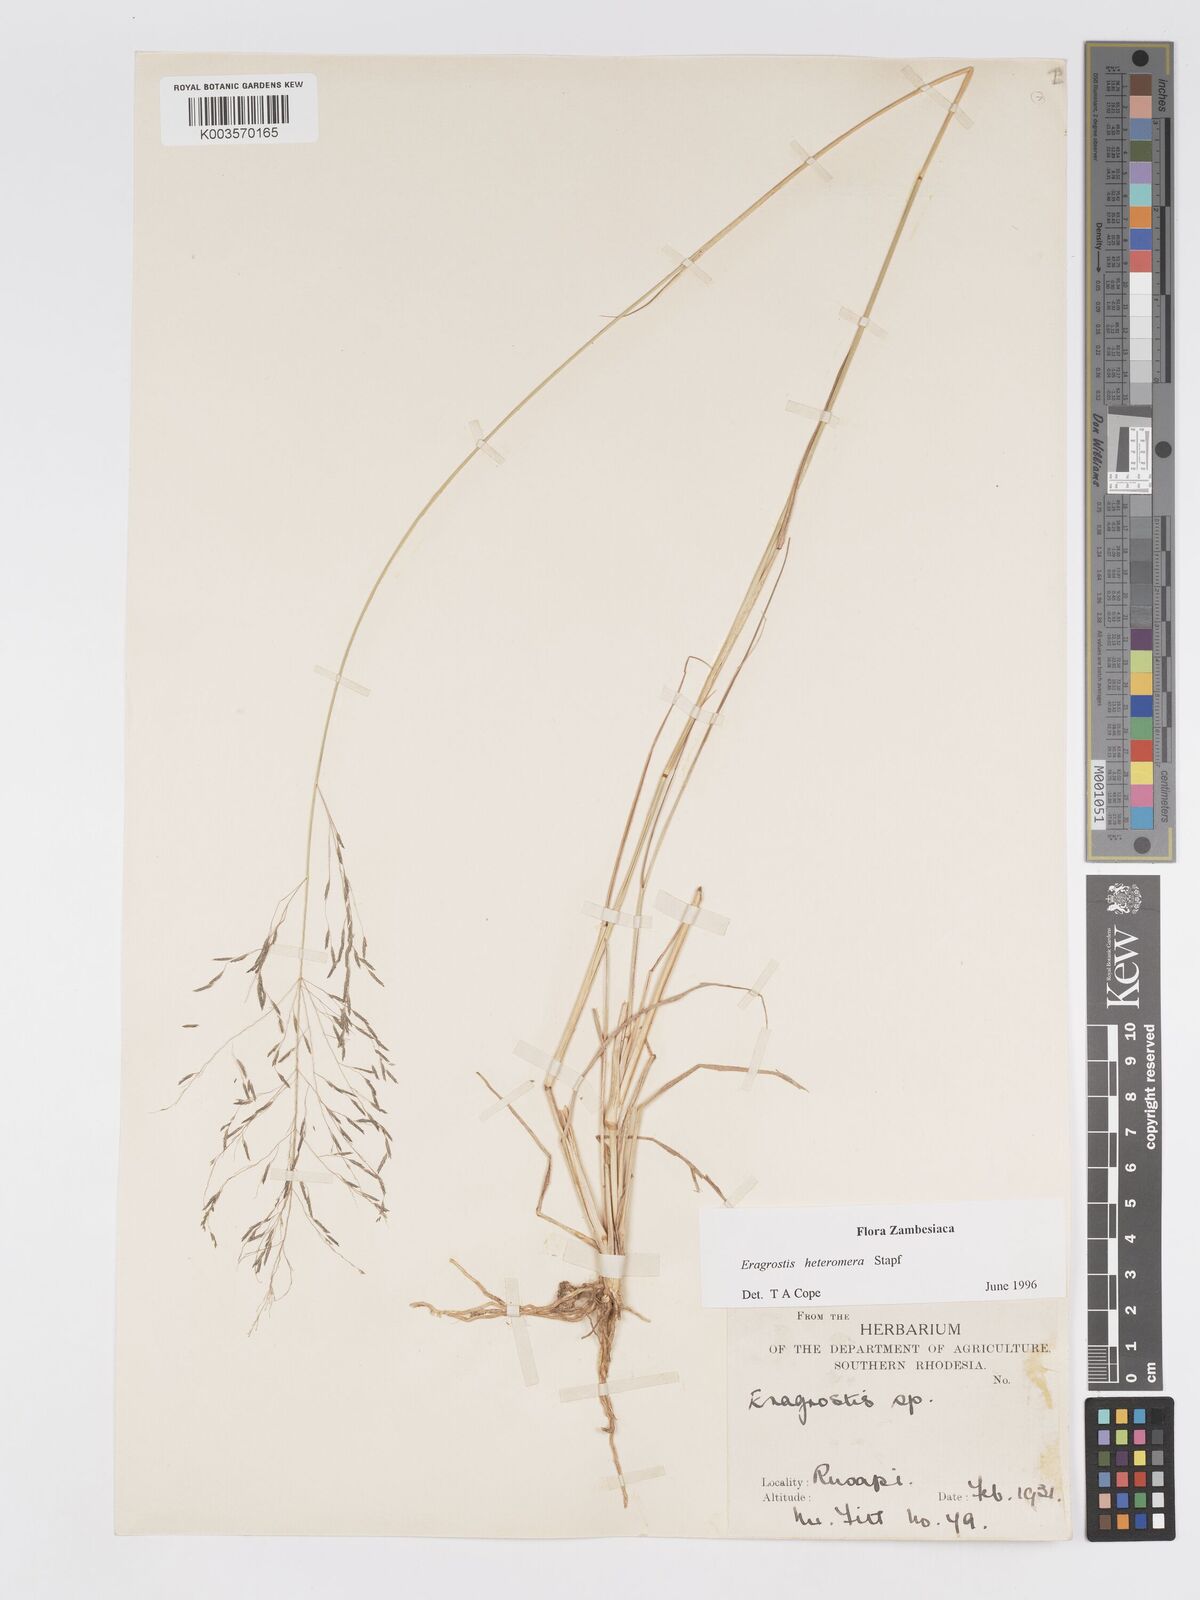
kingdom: Plantae
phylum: Tracheophyta
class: Liliopsida
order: Poales
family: Poaceae
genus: Eragrostis
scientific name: Eragrostis heteromera
